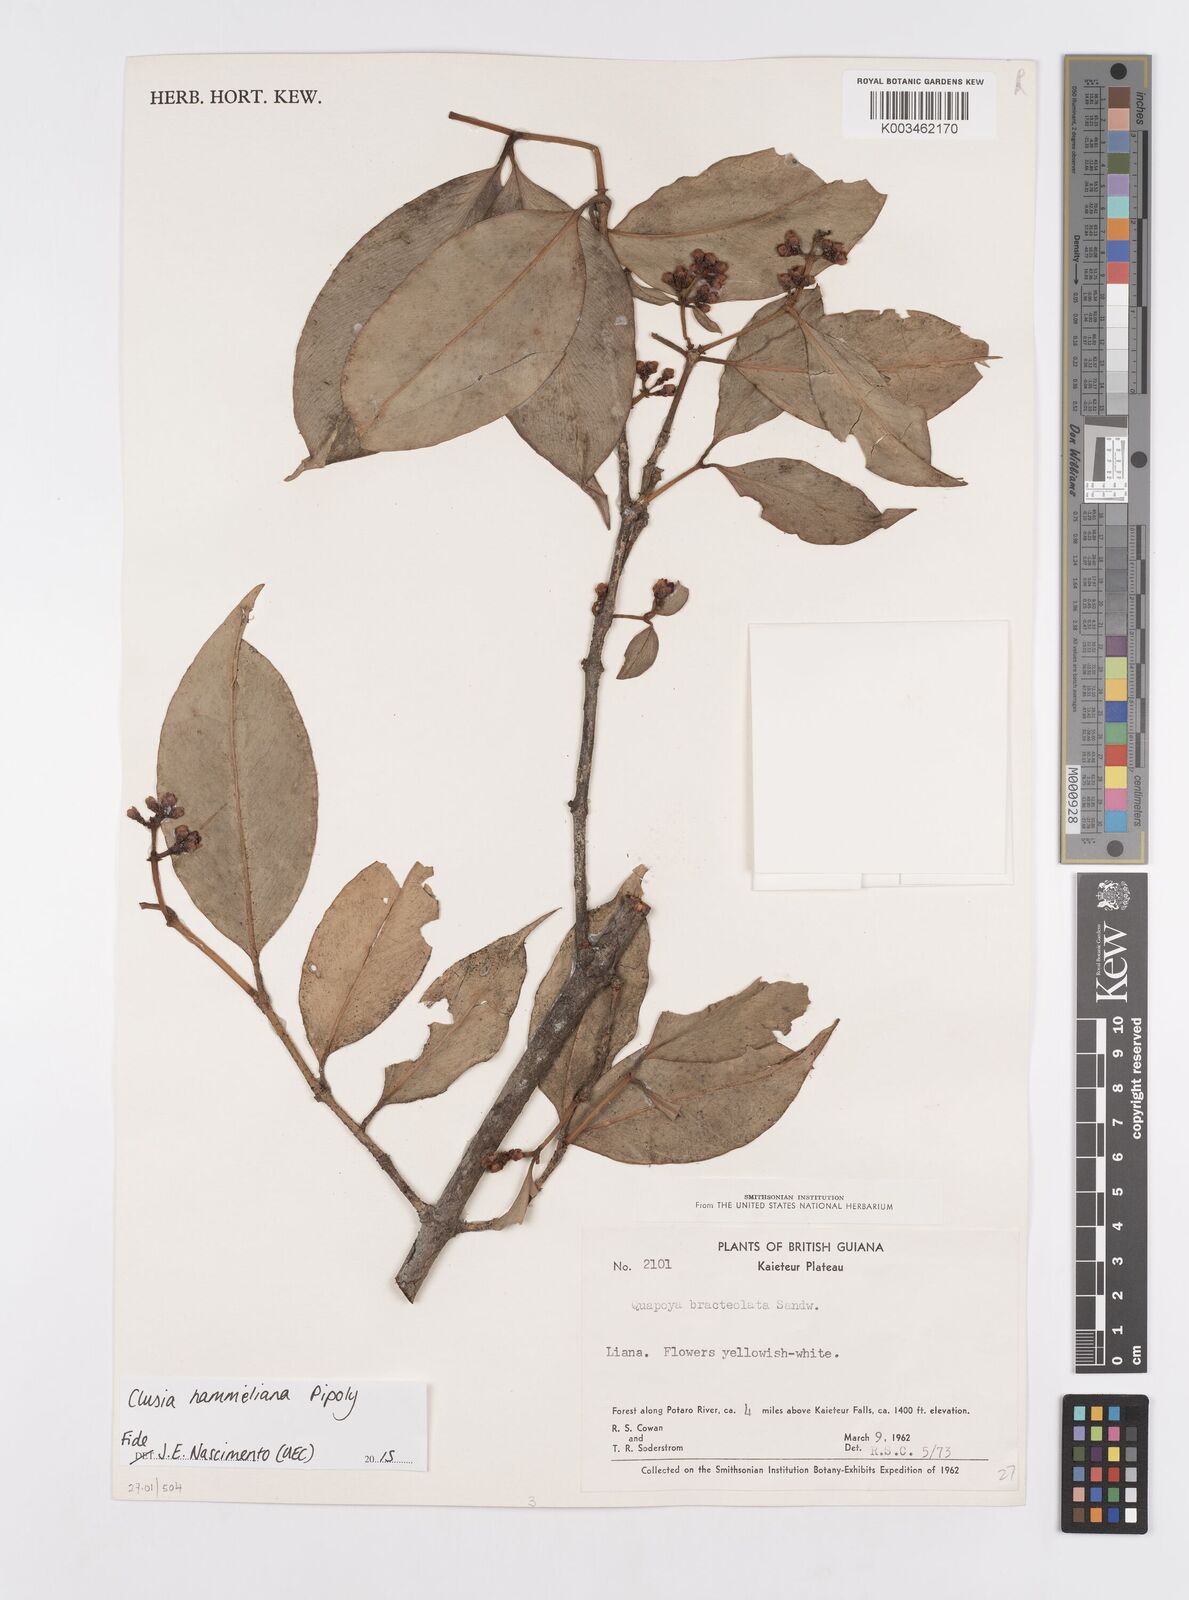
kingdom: Plantae
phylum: Tracheophyta
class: Magnoliopsida
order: Malpighiales
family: Clusiaceae
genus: Clusia
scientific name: Clusia hammeliana
